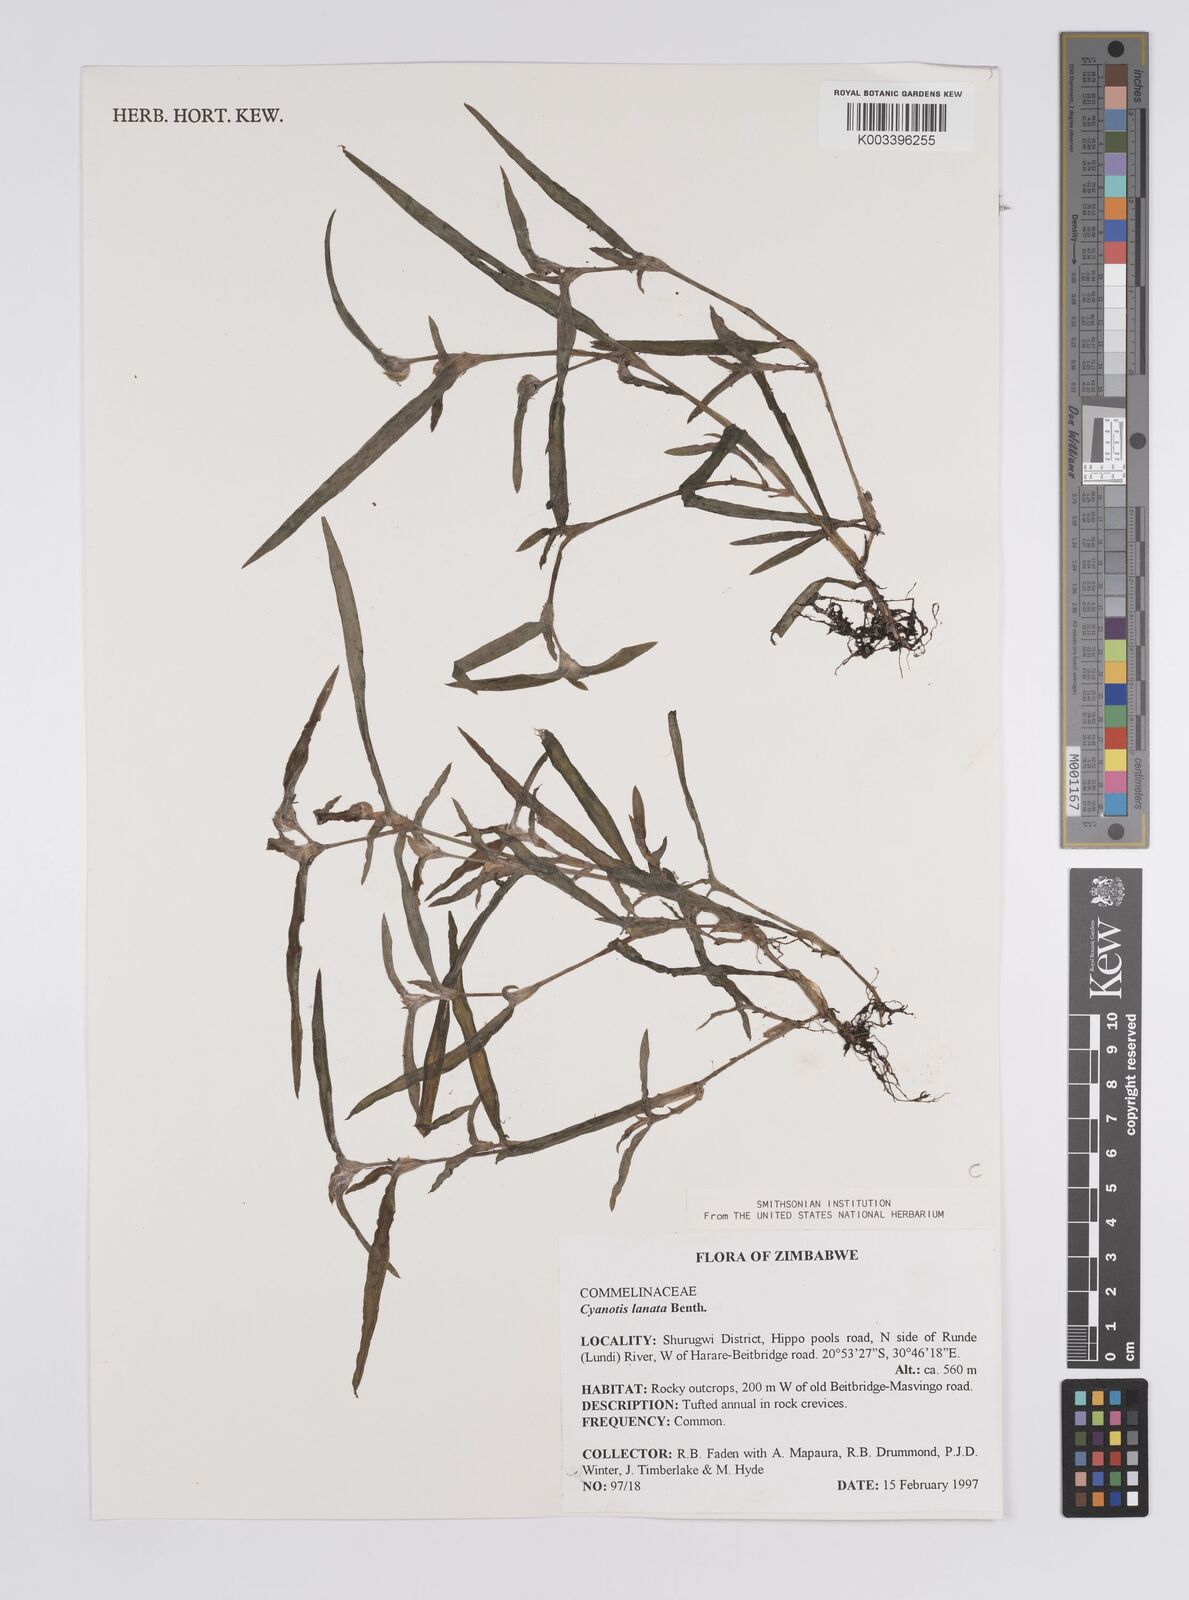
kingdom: Plantae
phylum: Tracheophyta
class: Liliopsida
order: Commelinales
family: Commelinaceae
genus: Cyanotis
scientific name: Cyanotis lanata
